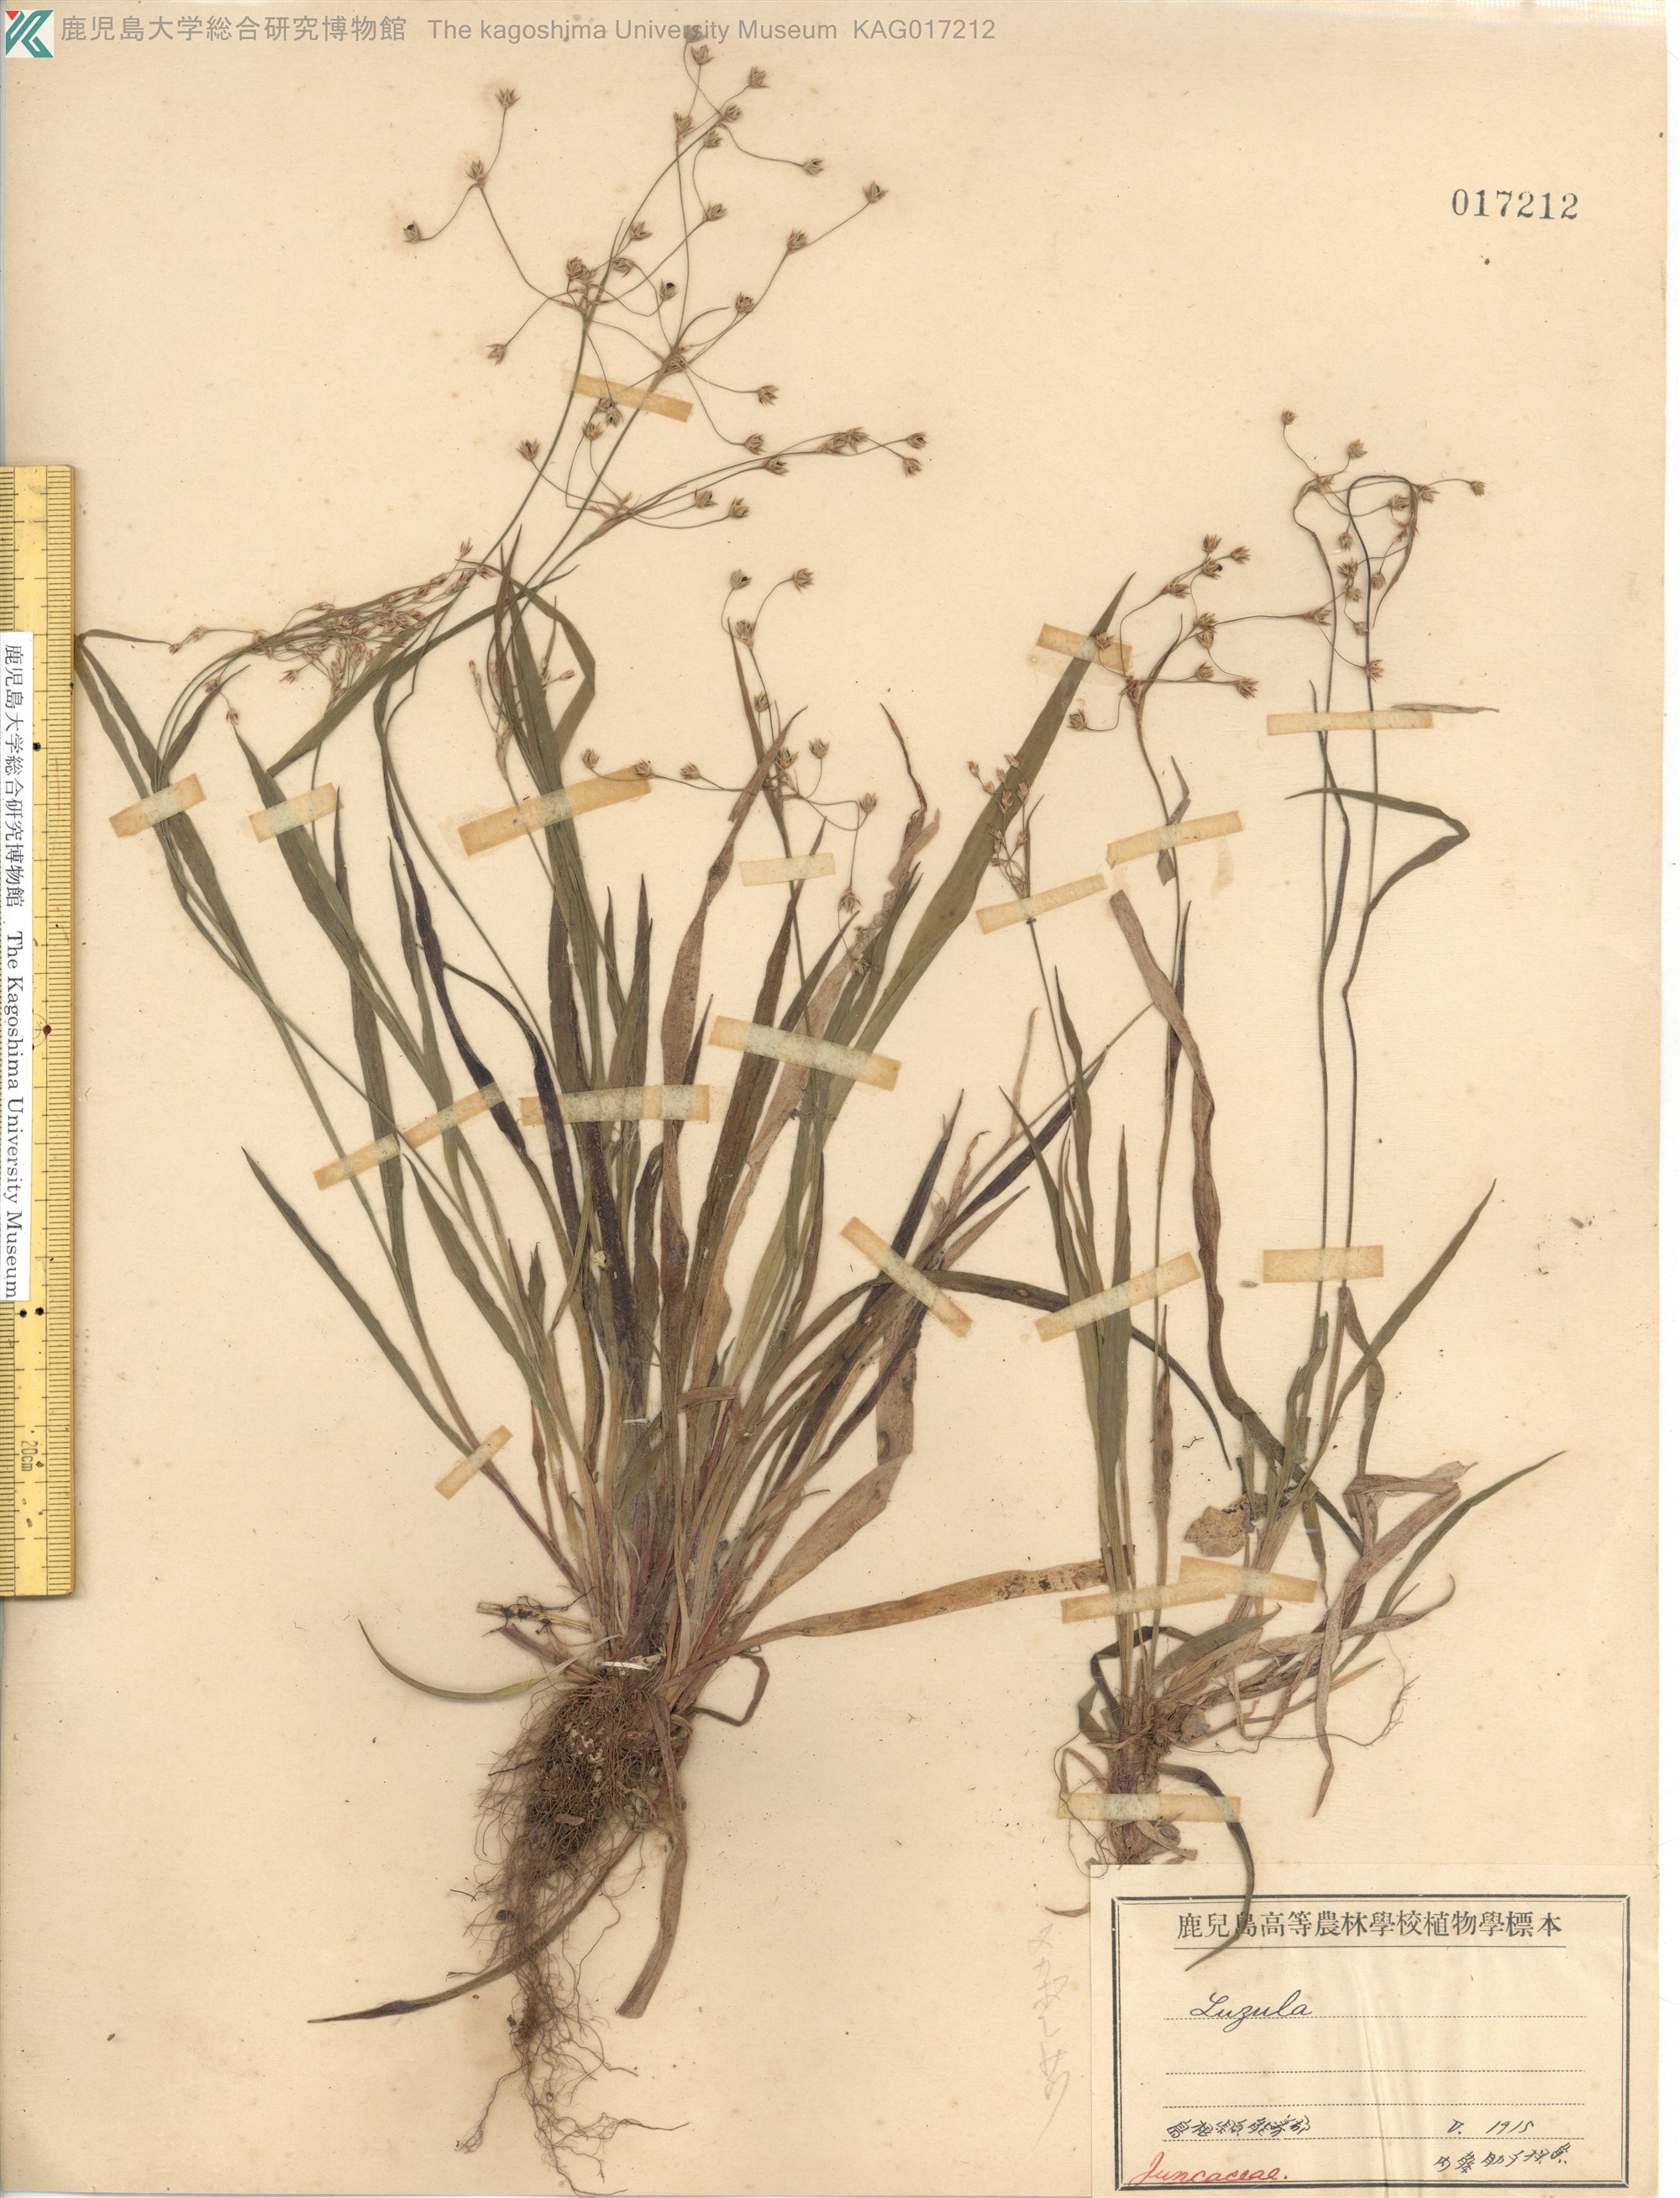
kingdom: Plantae
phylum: Tracheophyta
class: Liliopsida
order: Poales
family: Juncaceae
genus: Luzula
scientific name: Luzula plumosa
